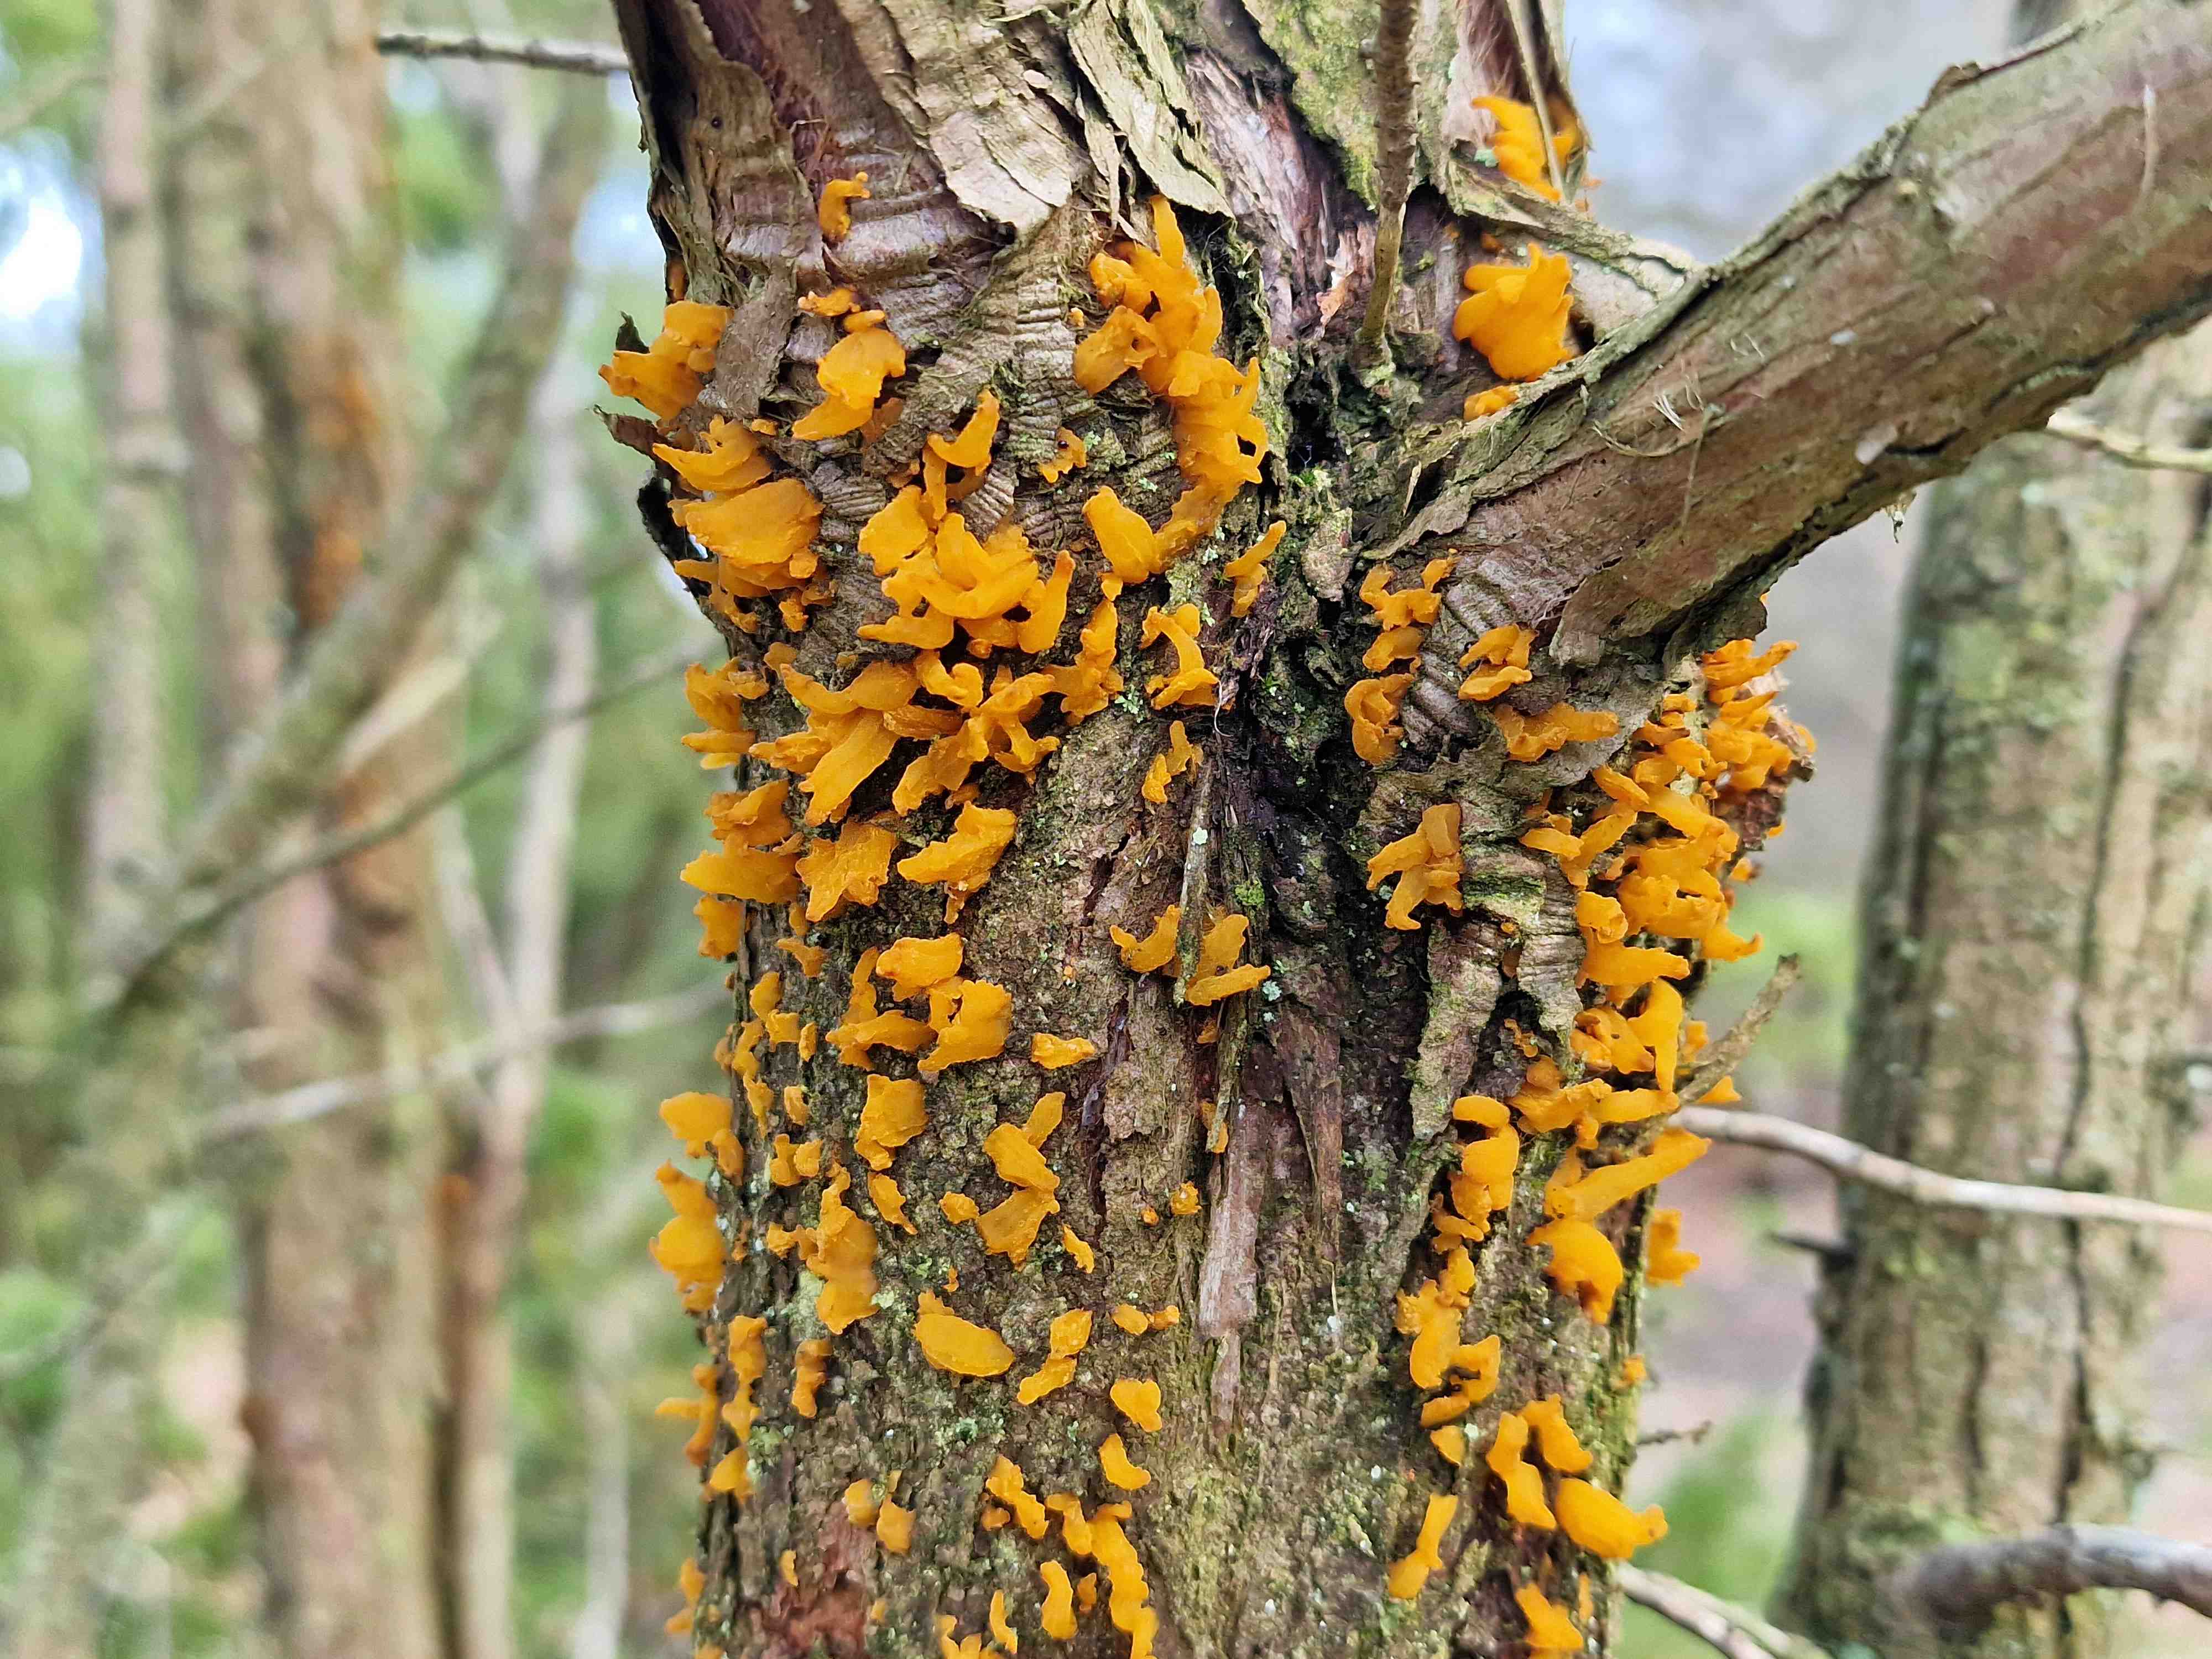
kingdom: Fungi
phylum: Basidiomycota
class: Pucciniomycetes
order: Pucciniales
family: Gymnosporangiaceae
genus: Gymnosporangium
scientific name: Gymnosporangium clavariiforme
